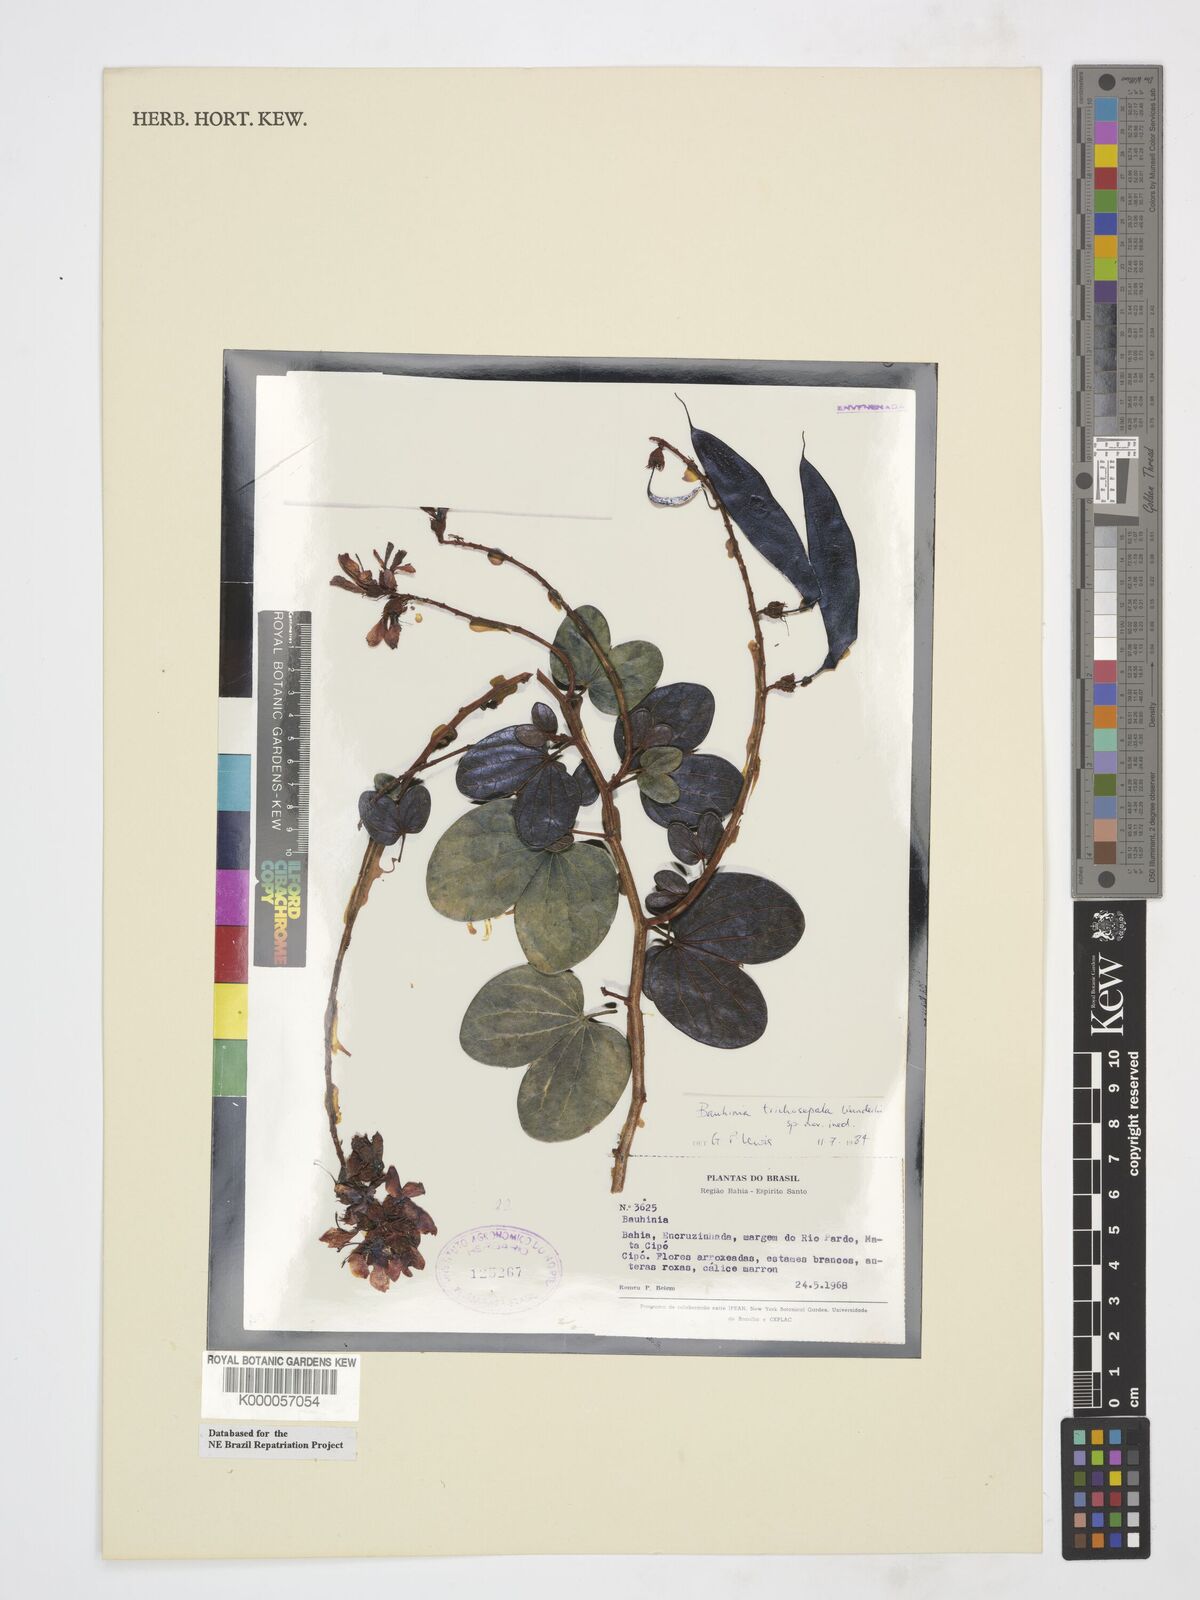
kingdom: Plantae
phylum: Tracheophyta
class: Magnoliopsida
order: Fabales
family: Fabaceae
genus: Schnella
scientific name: Schnella trichosepala
